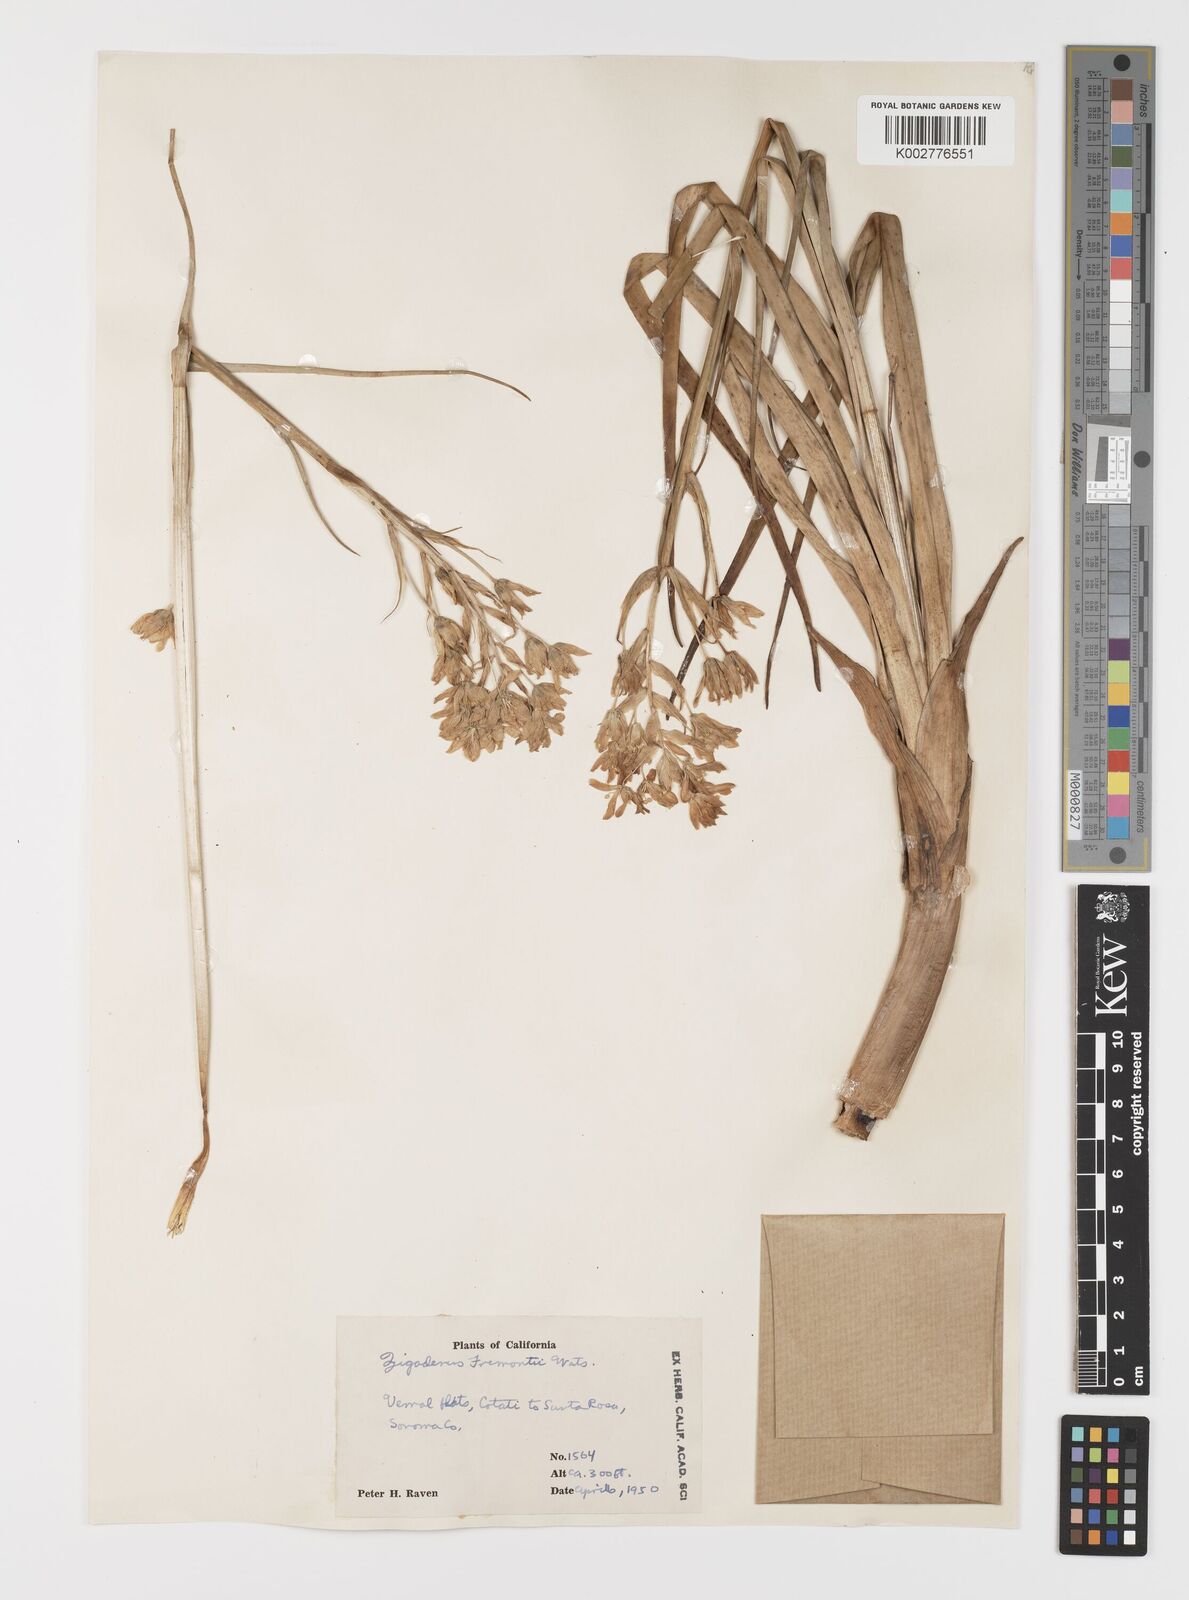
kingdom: Plantae
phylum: Tracheophyta
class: Liliopsida
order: Liliales
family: Melanthiaceae
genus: Toxicoscordion
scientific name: Toxicoscordion fremontii
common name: Fremont's death camas
